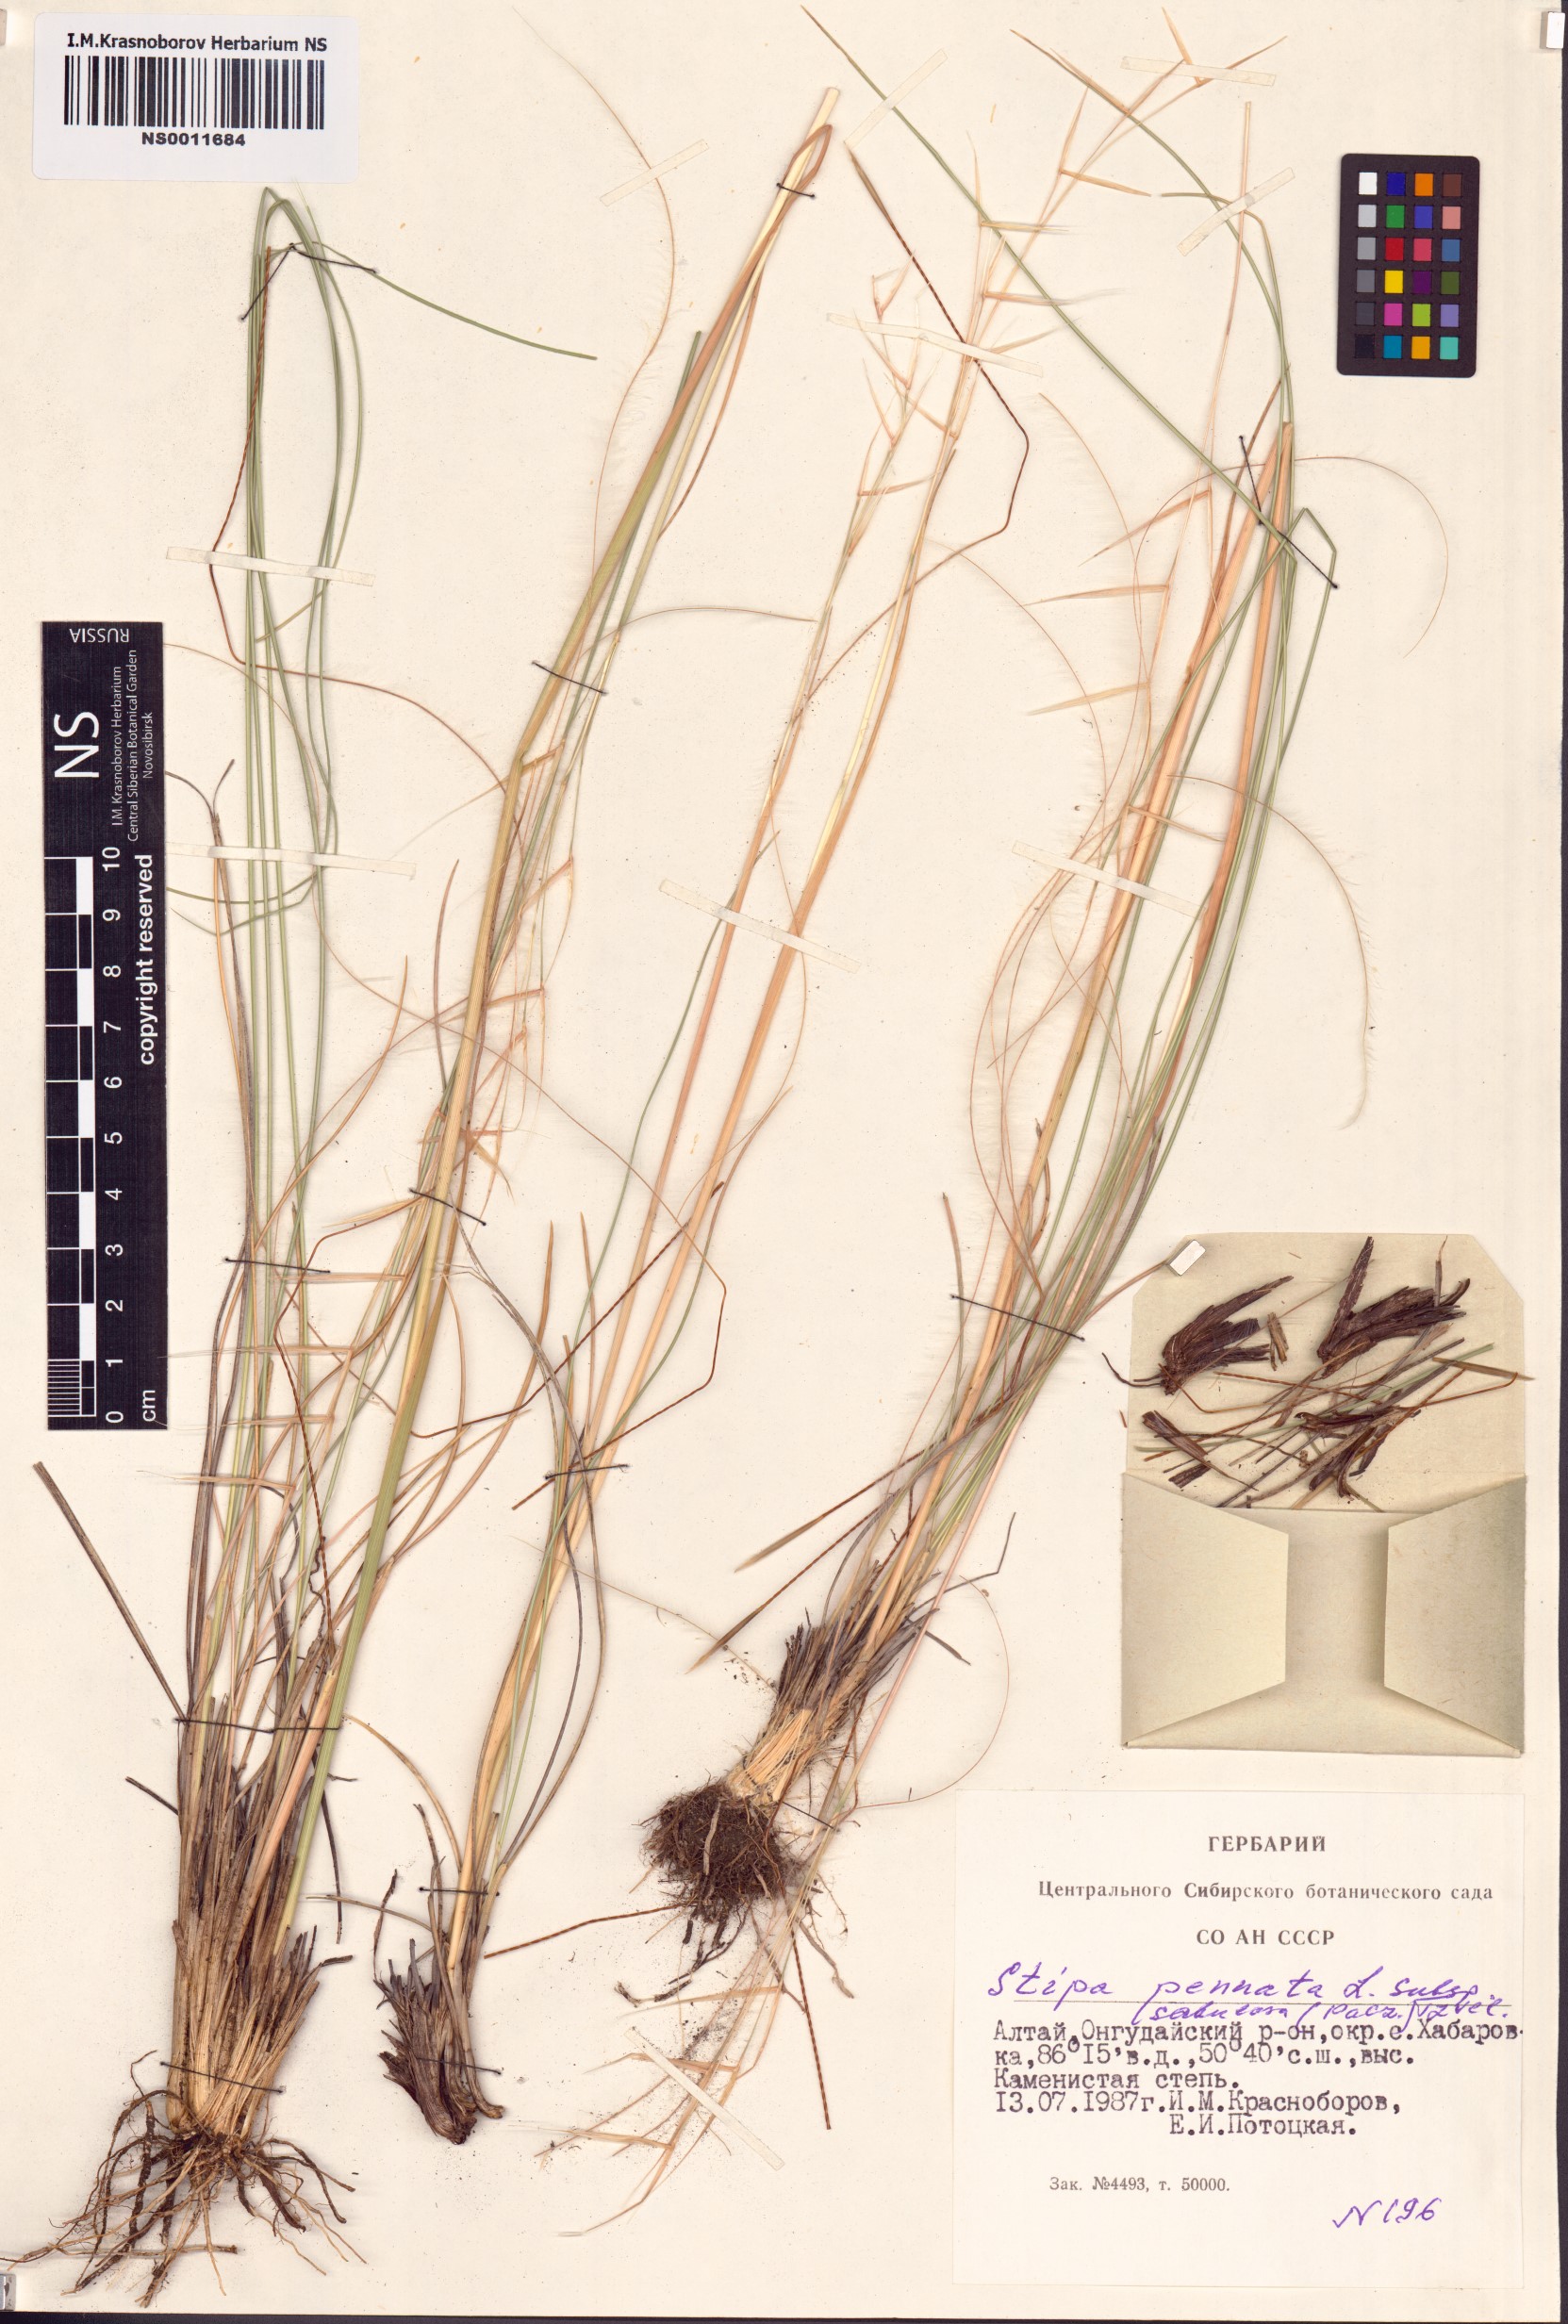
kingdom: Plantae
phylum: Tracheophyta
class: Liliopsida
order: Poales
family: Poaceae
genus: Stipa
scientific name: Stipa borysthenica
